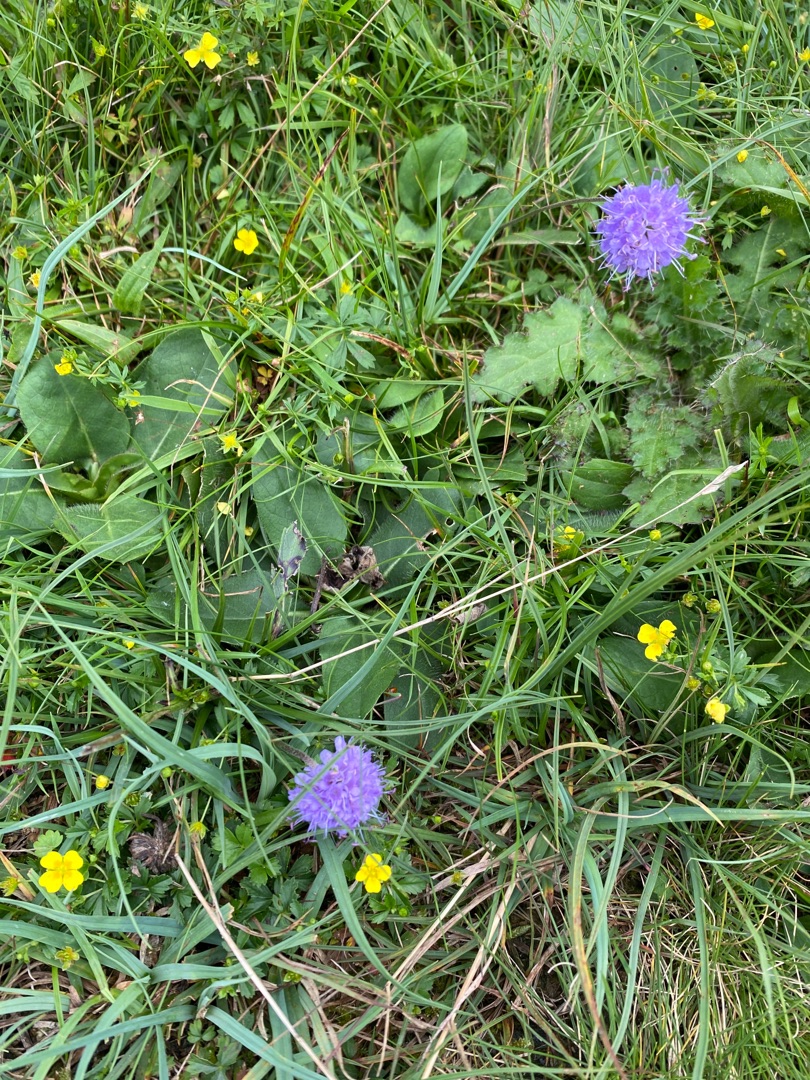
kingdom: Plantae
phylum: Tracheophyta
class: Magnoliopsida
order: Dipsacales
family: Caprifoliaceae
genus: Succisa
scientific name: Succisa pratensis
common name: Djævelsbid
